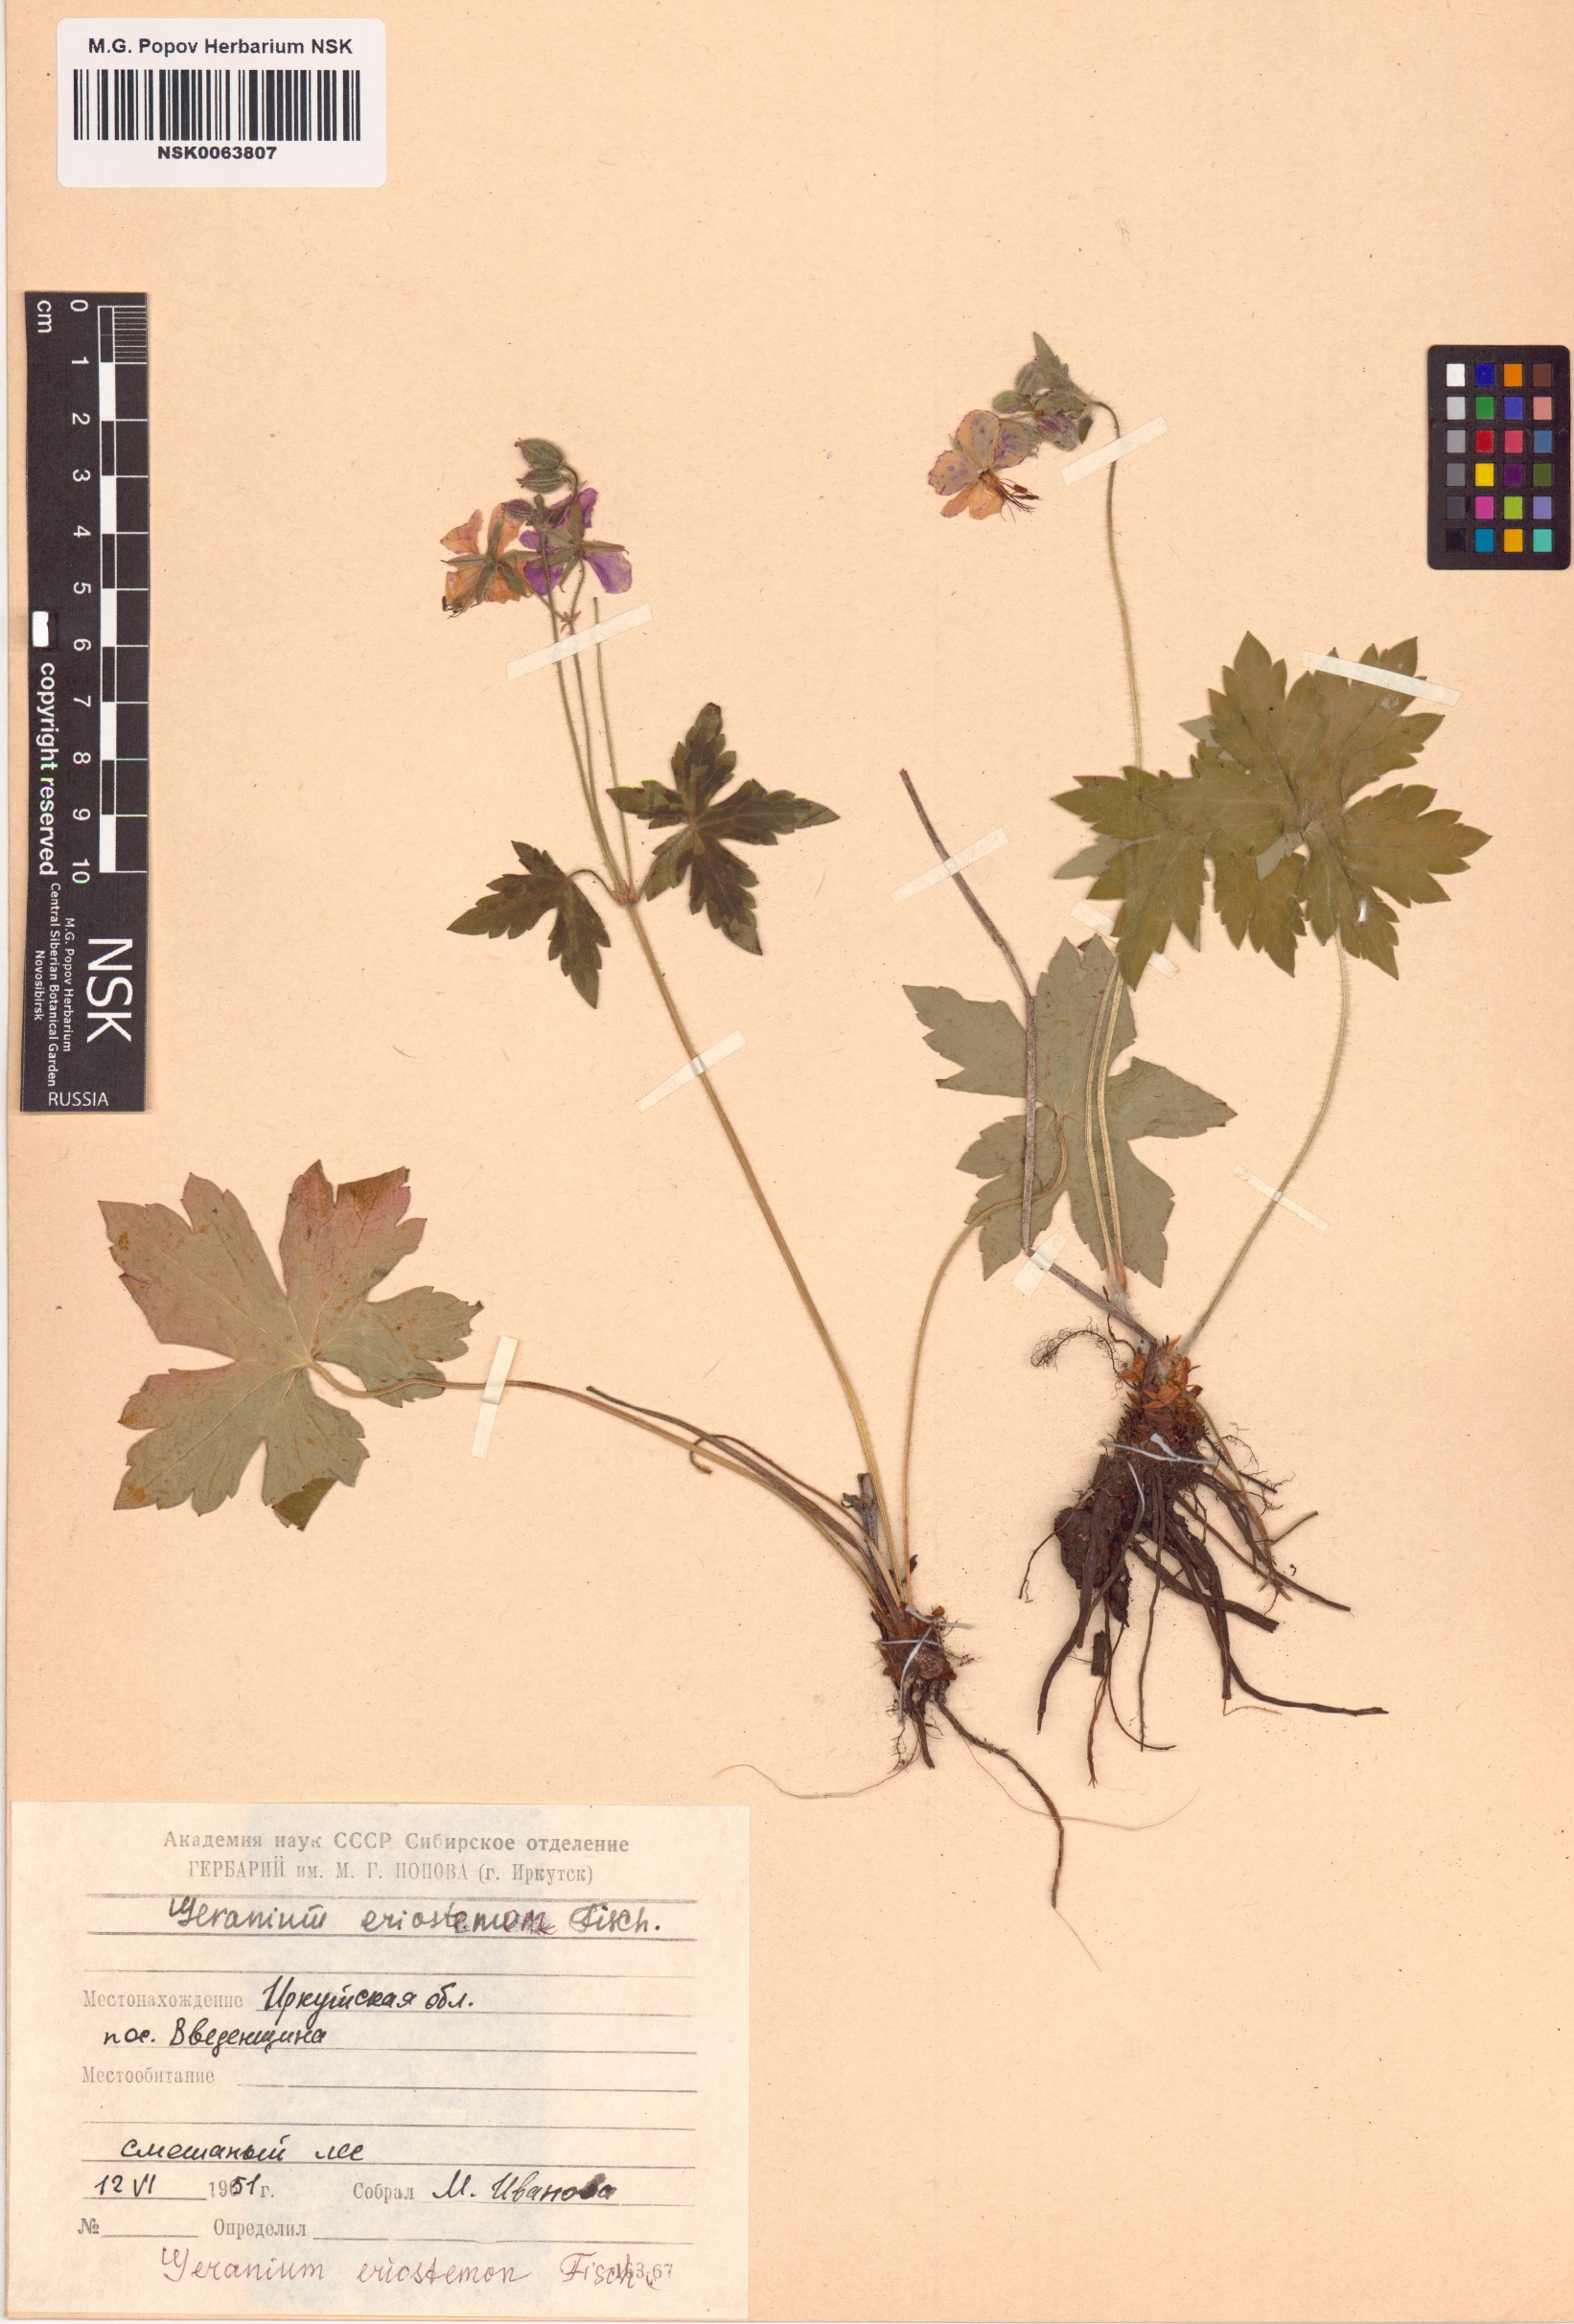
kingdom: Plantae
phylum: Tracheophyta
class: Magnoliopsida
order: Geraniales
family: Geraniaceae
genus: Geranium
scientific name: Geranium platyanthum
